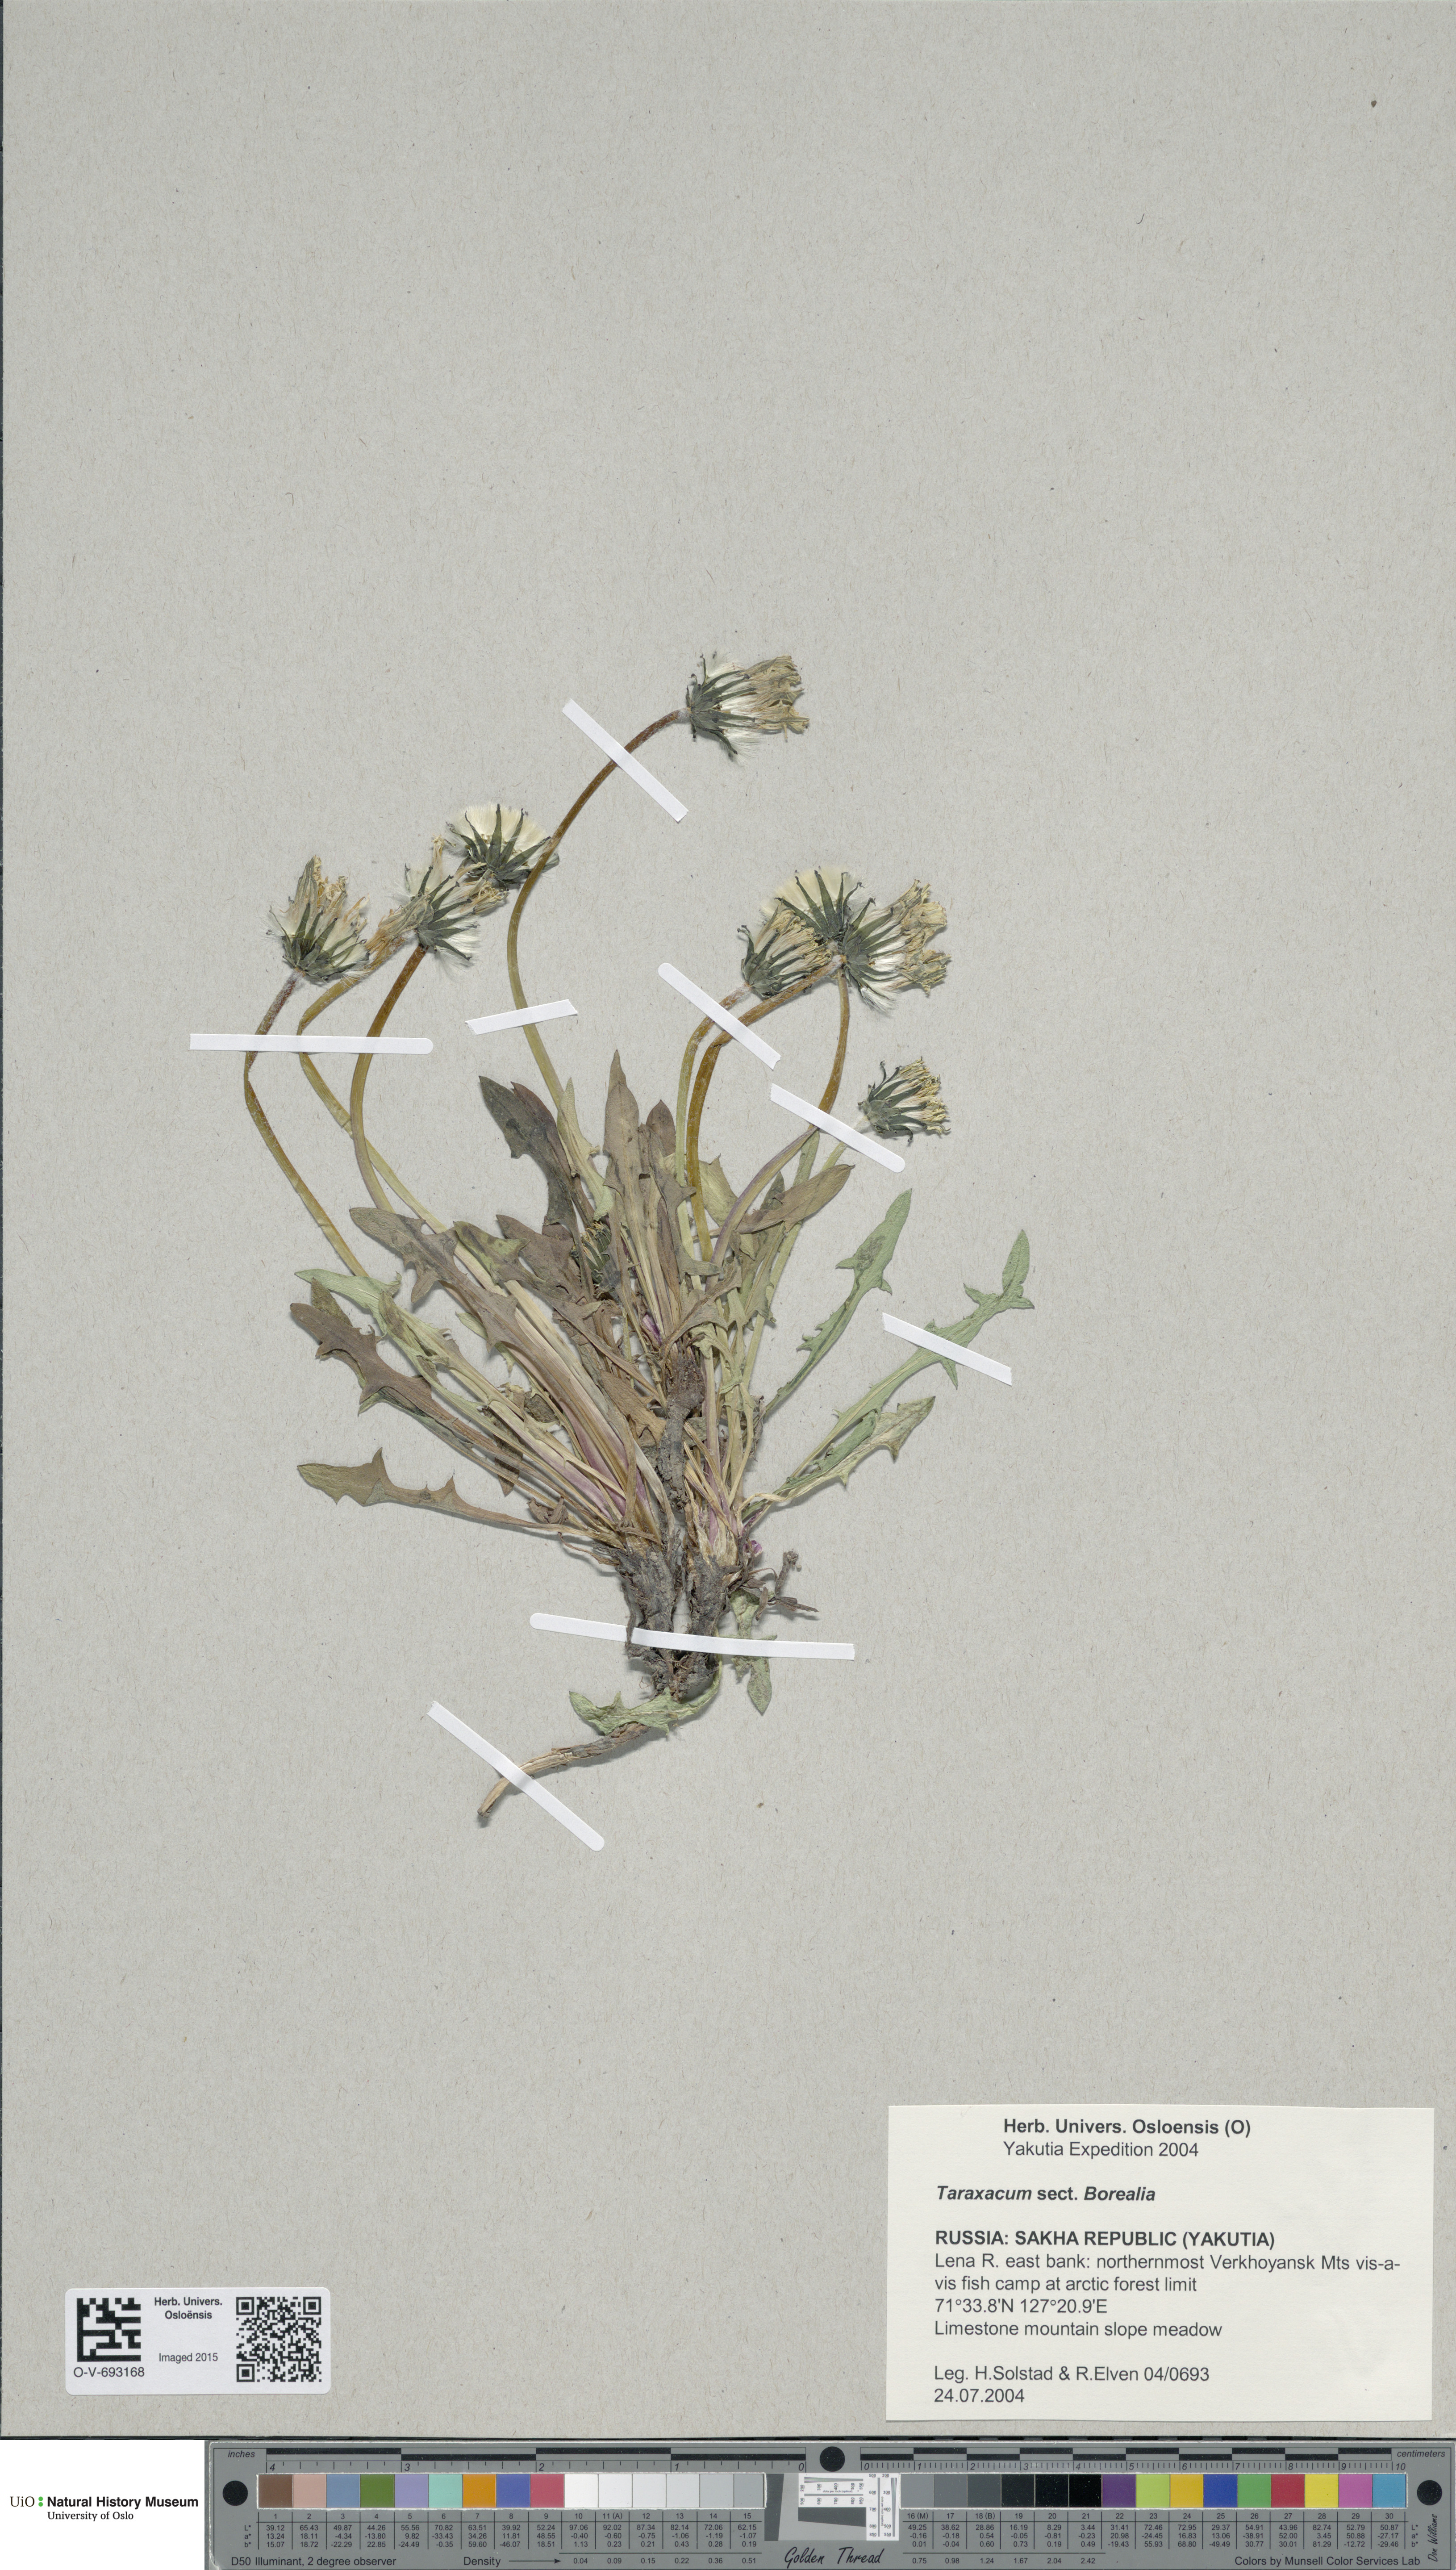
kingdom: Plantae
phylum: Tracheophyta
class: Magnoliopsida
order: Asterales
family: Asteraceae
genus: Taraxacum
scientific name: Taraxacum borealia
